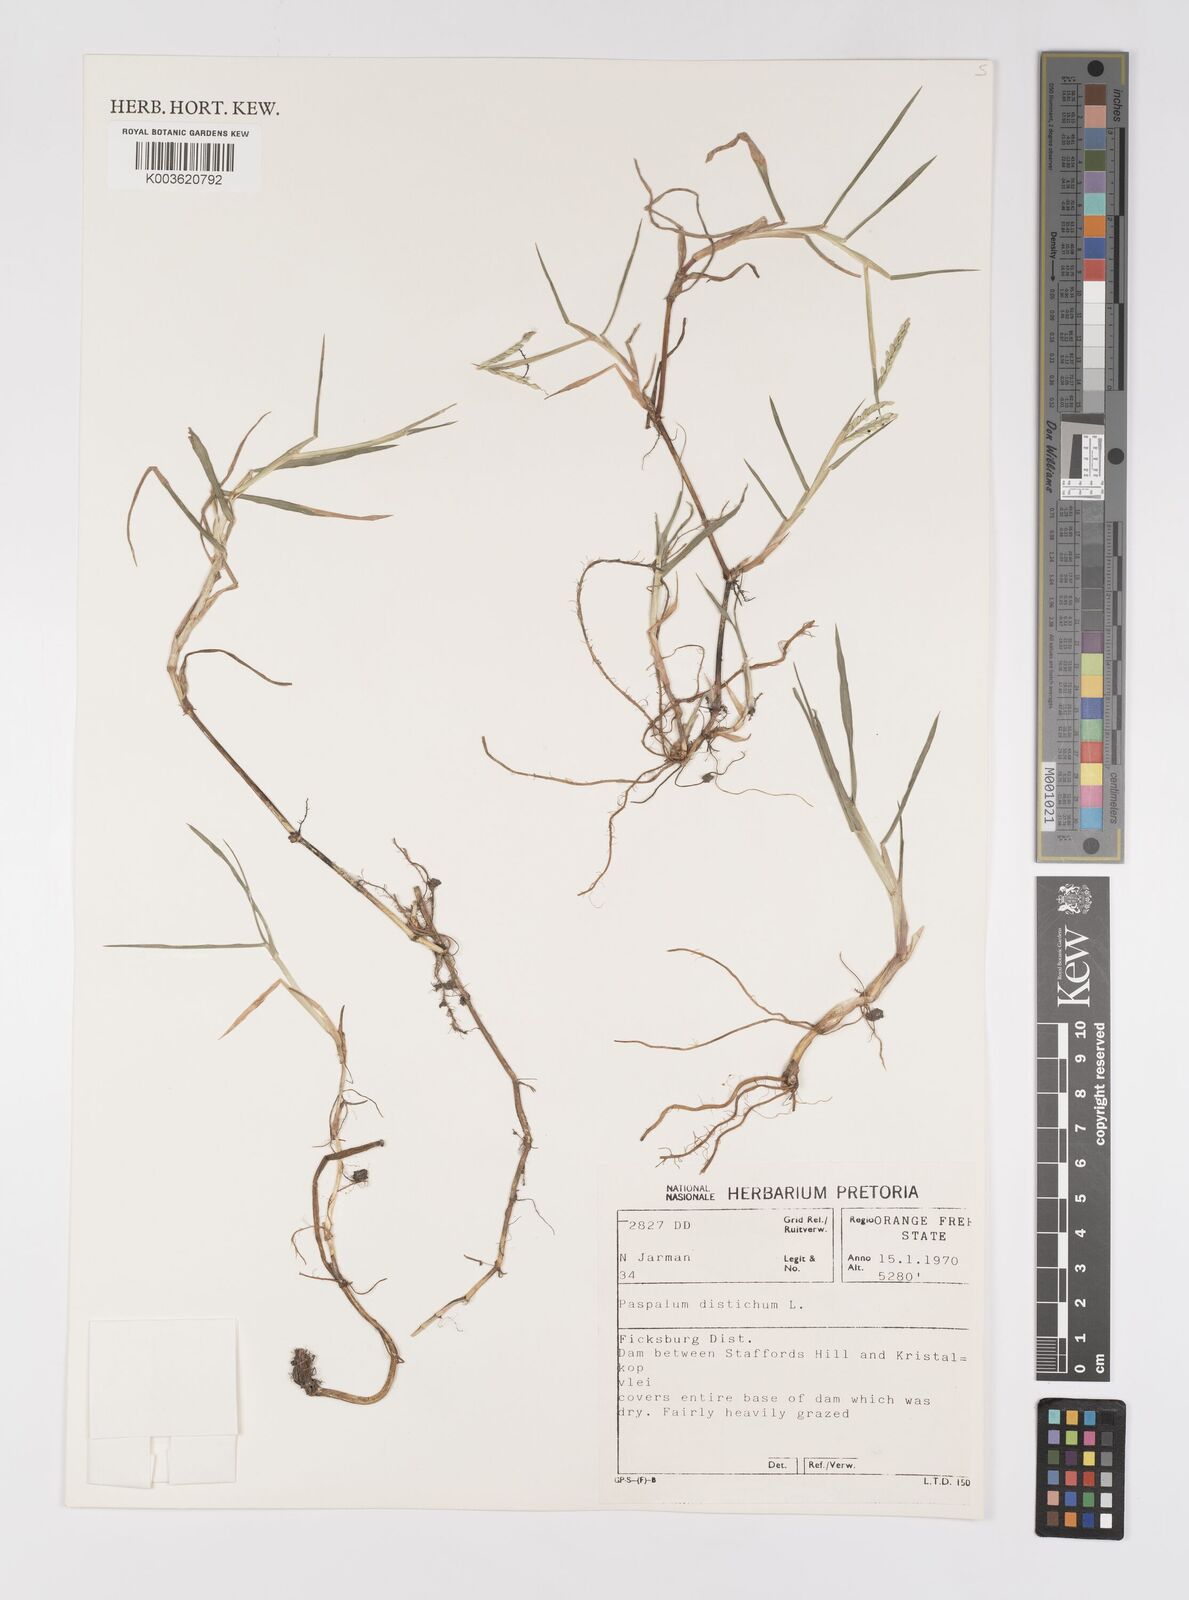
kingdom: Plantae
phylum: Tracheophyta
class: Liliopsida
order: Poales
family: Poaceae
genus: Paspalum
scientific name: Paspalum distichum
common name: Knotgrass
